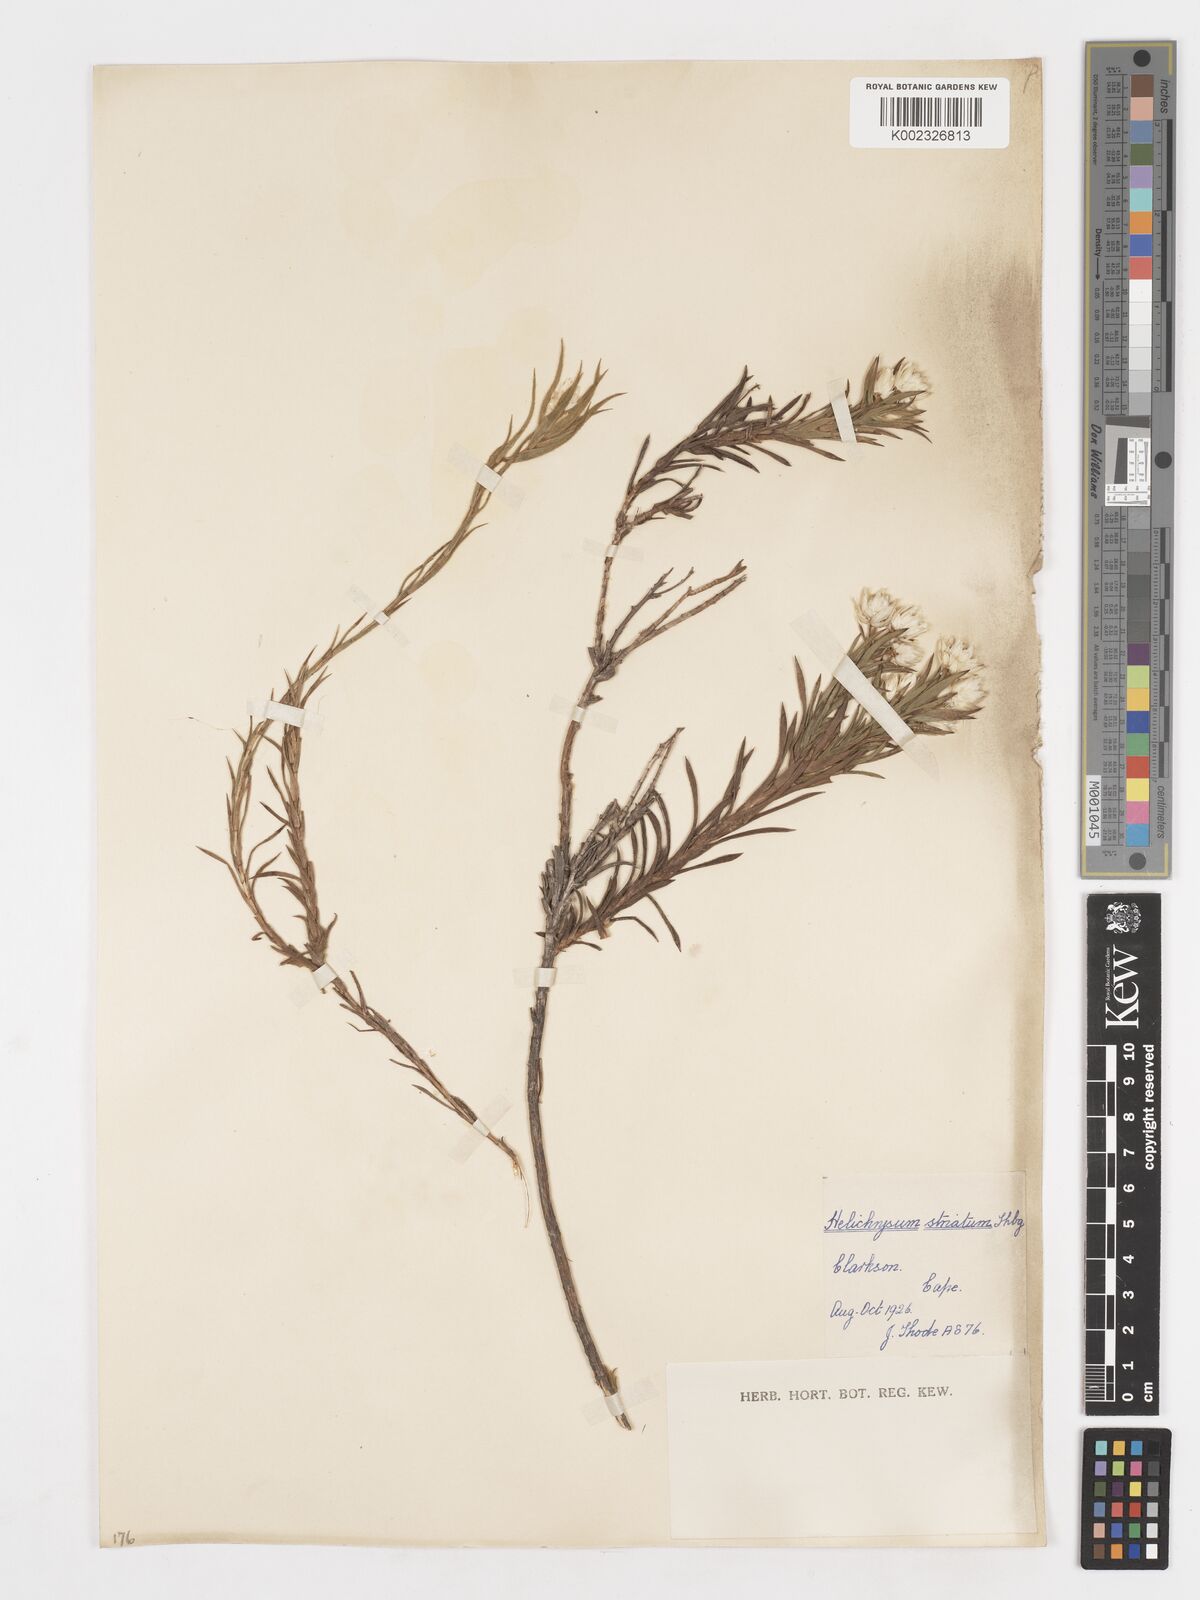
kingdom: Plantae
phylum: Tracheophyta
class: Magnoliopsida
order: Asterales
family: Asteraceae
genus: Achyranthemum
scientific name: Achyranthemum striatum
